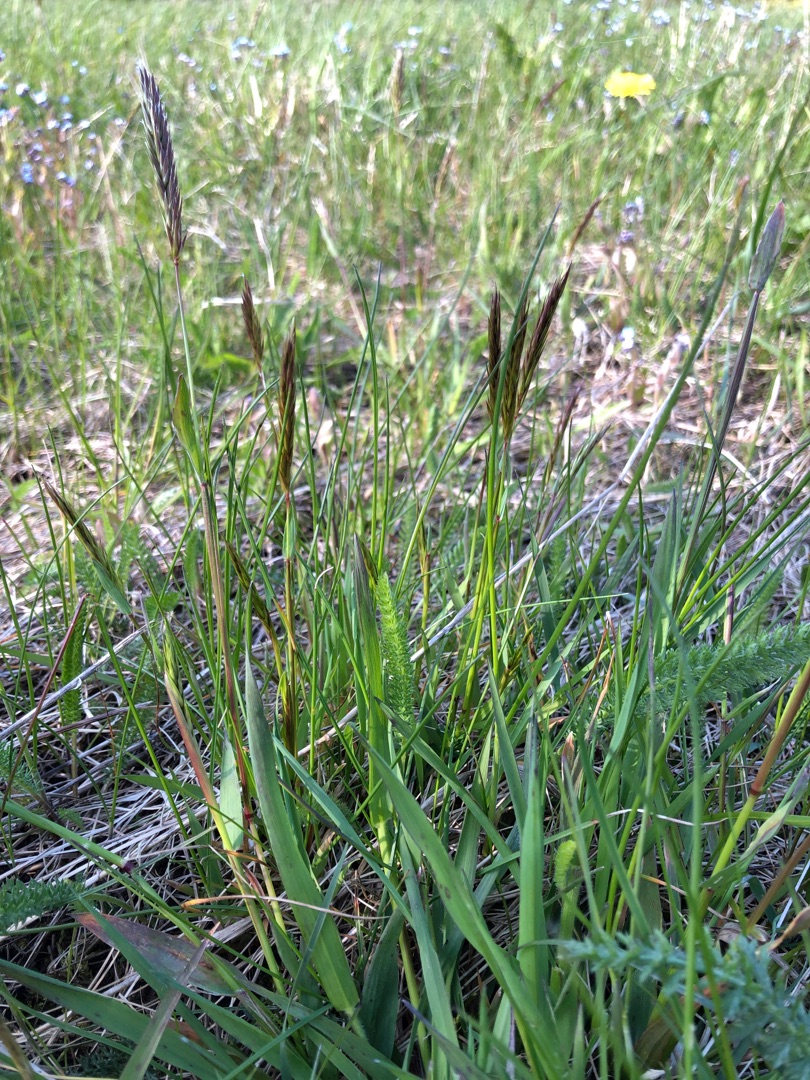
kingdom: Plantae
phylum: Tracheophyta
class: Liliopsida
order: Poales
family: Poaceae
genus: Anthoxanthum
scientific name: Anthoxanthum odoratum
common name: Vellugtende gulaks
